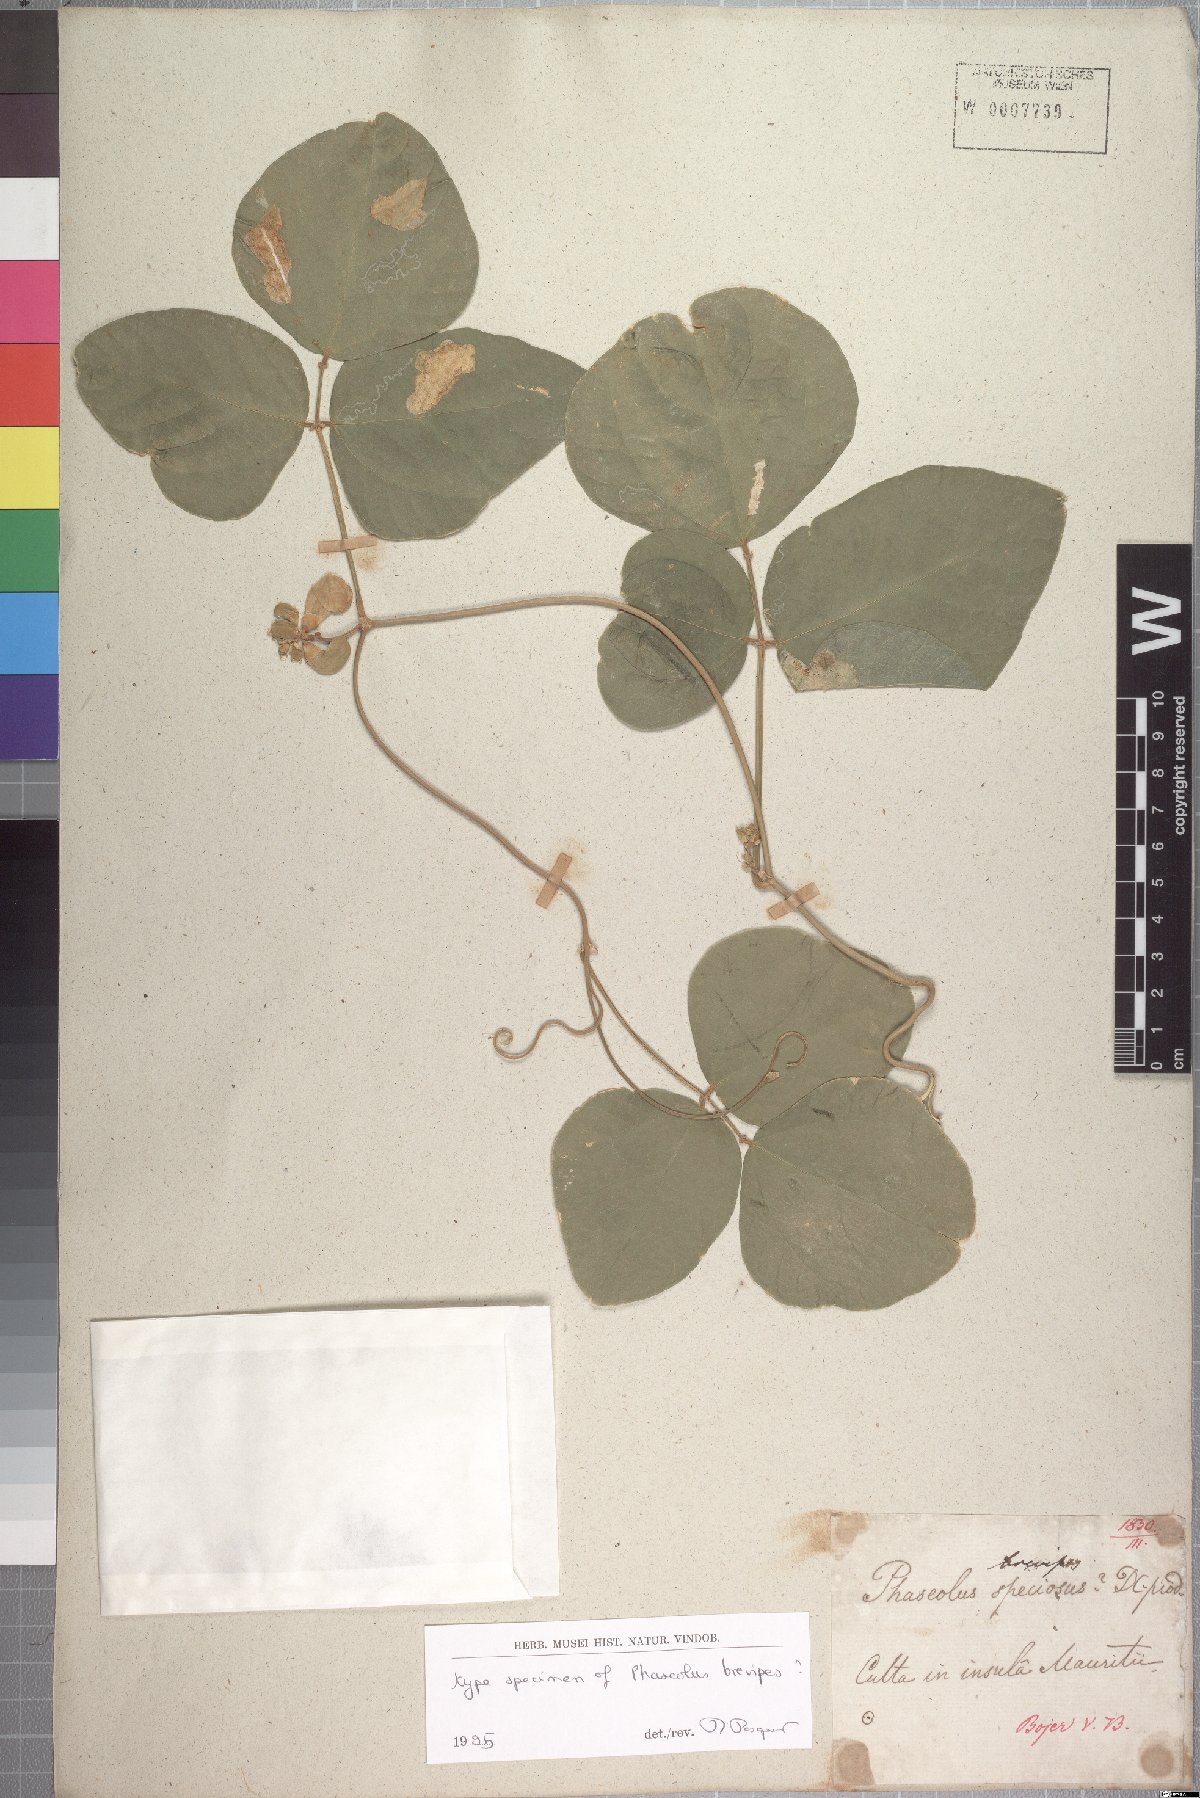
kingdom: Plantae
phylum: Tracheophyta
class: Magnoliopsida
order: Fabales
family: Fabaceae
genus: Leptospron
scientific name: Leptospron adenanthum
